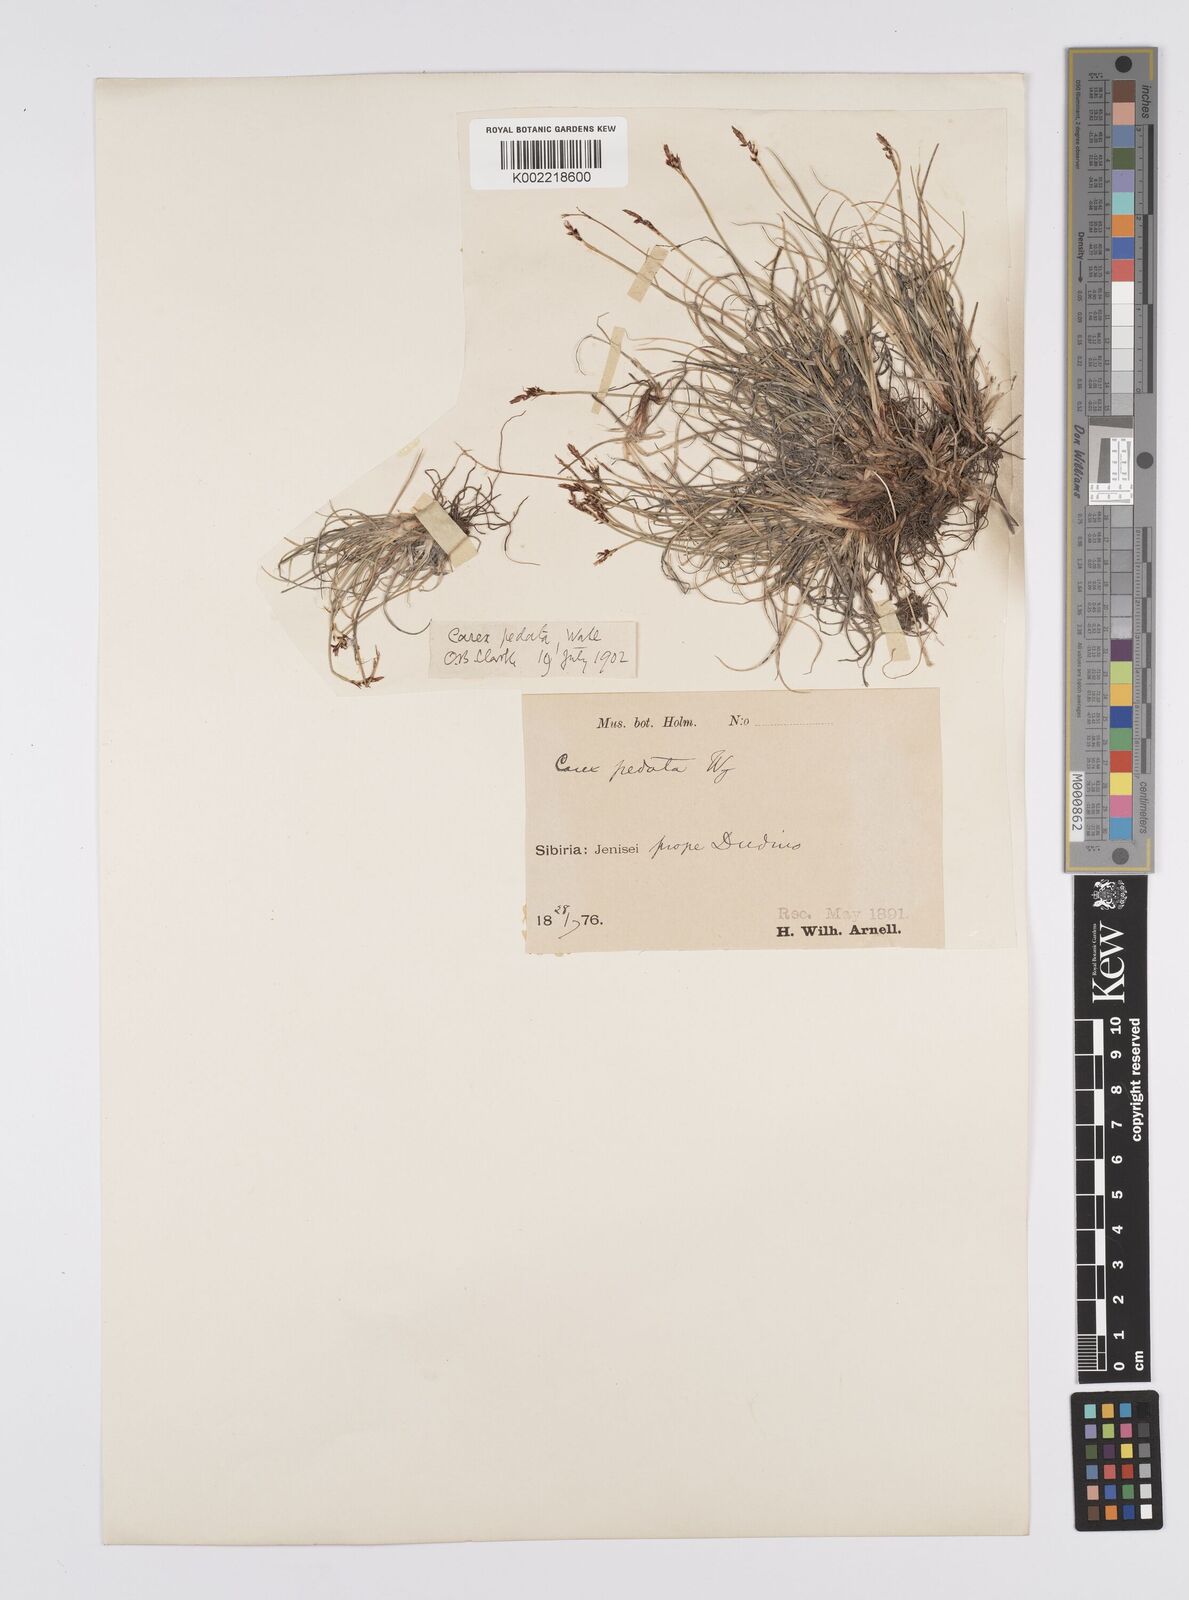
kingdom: Plantae
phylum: Tracheophyta
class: Liliopsida
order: Poales
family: Cyperaceae
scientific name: Cyperaceae
